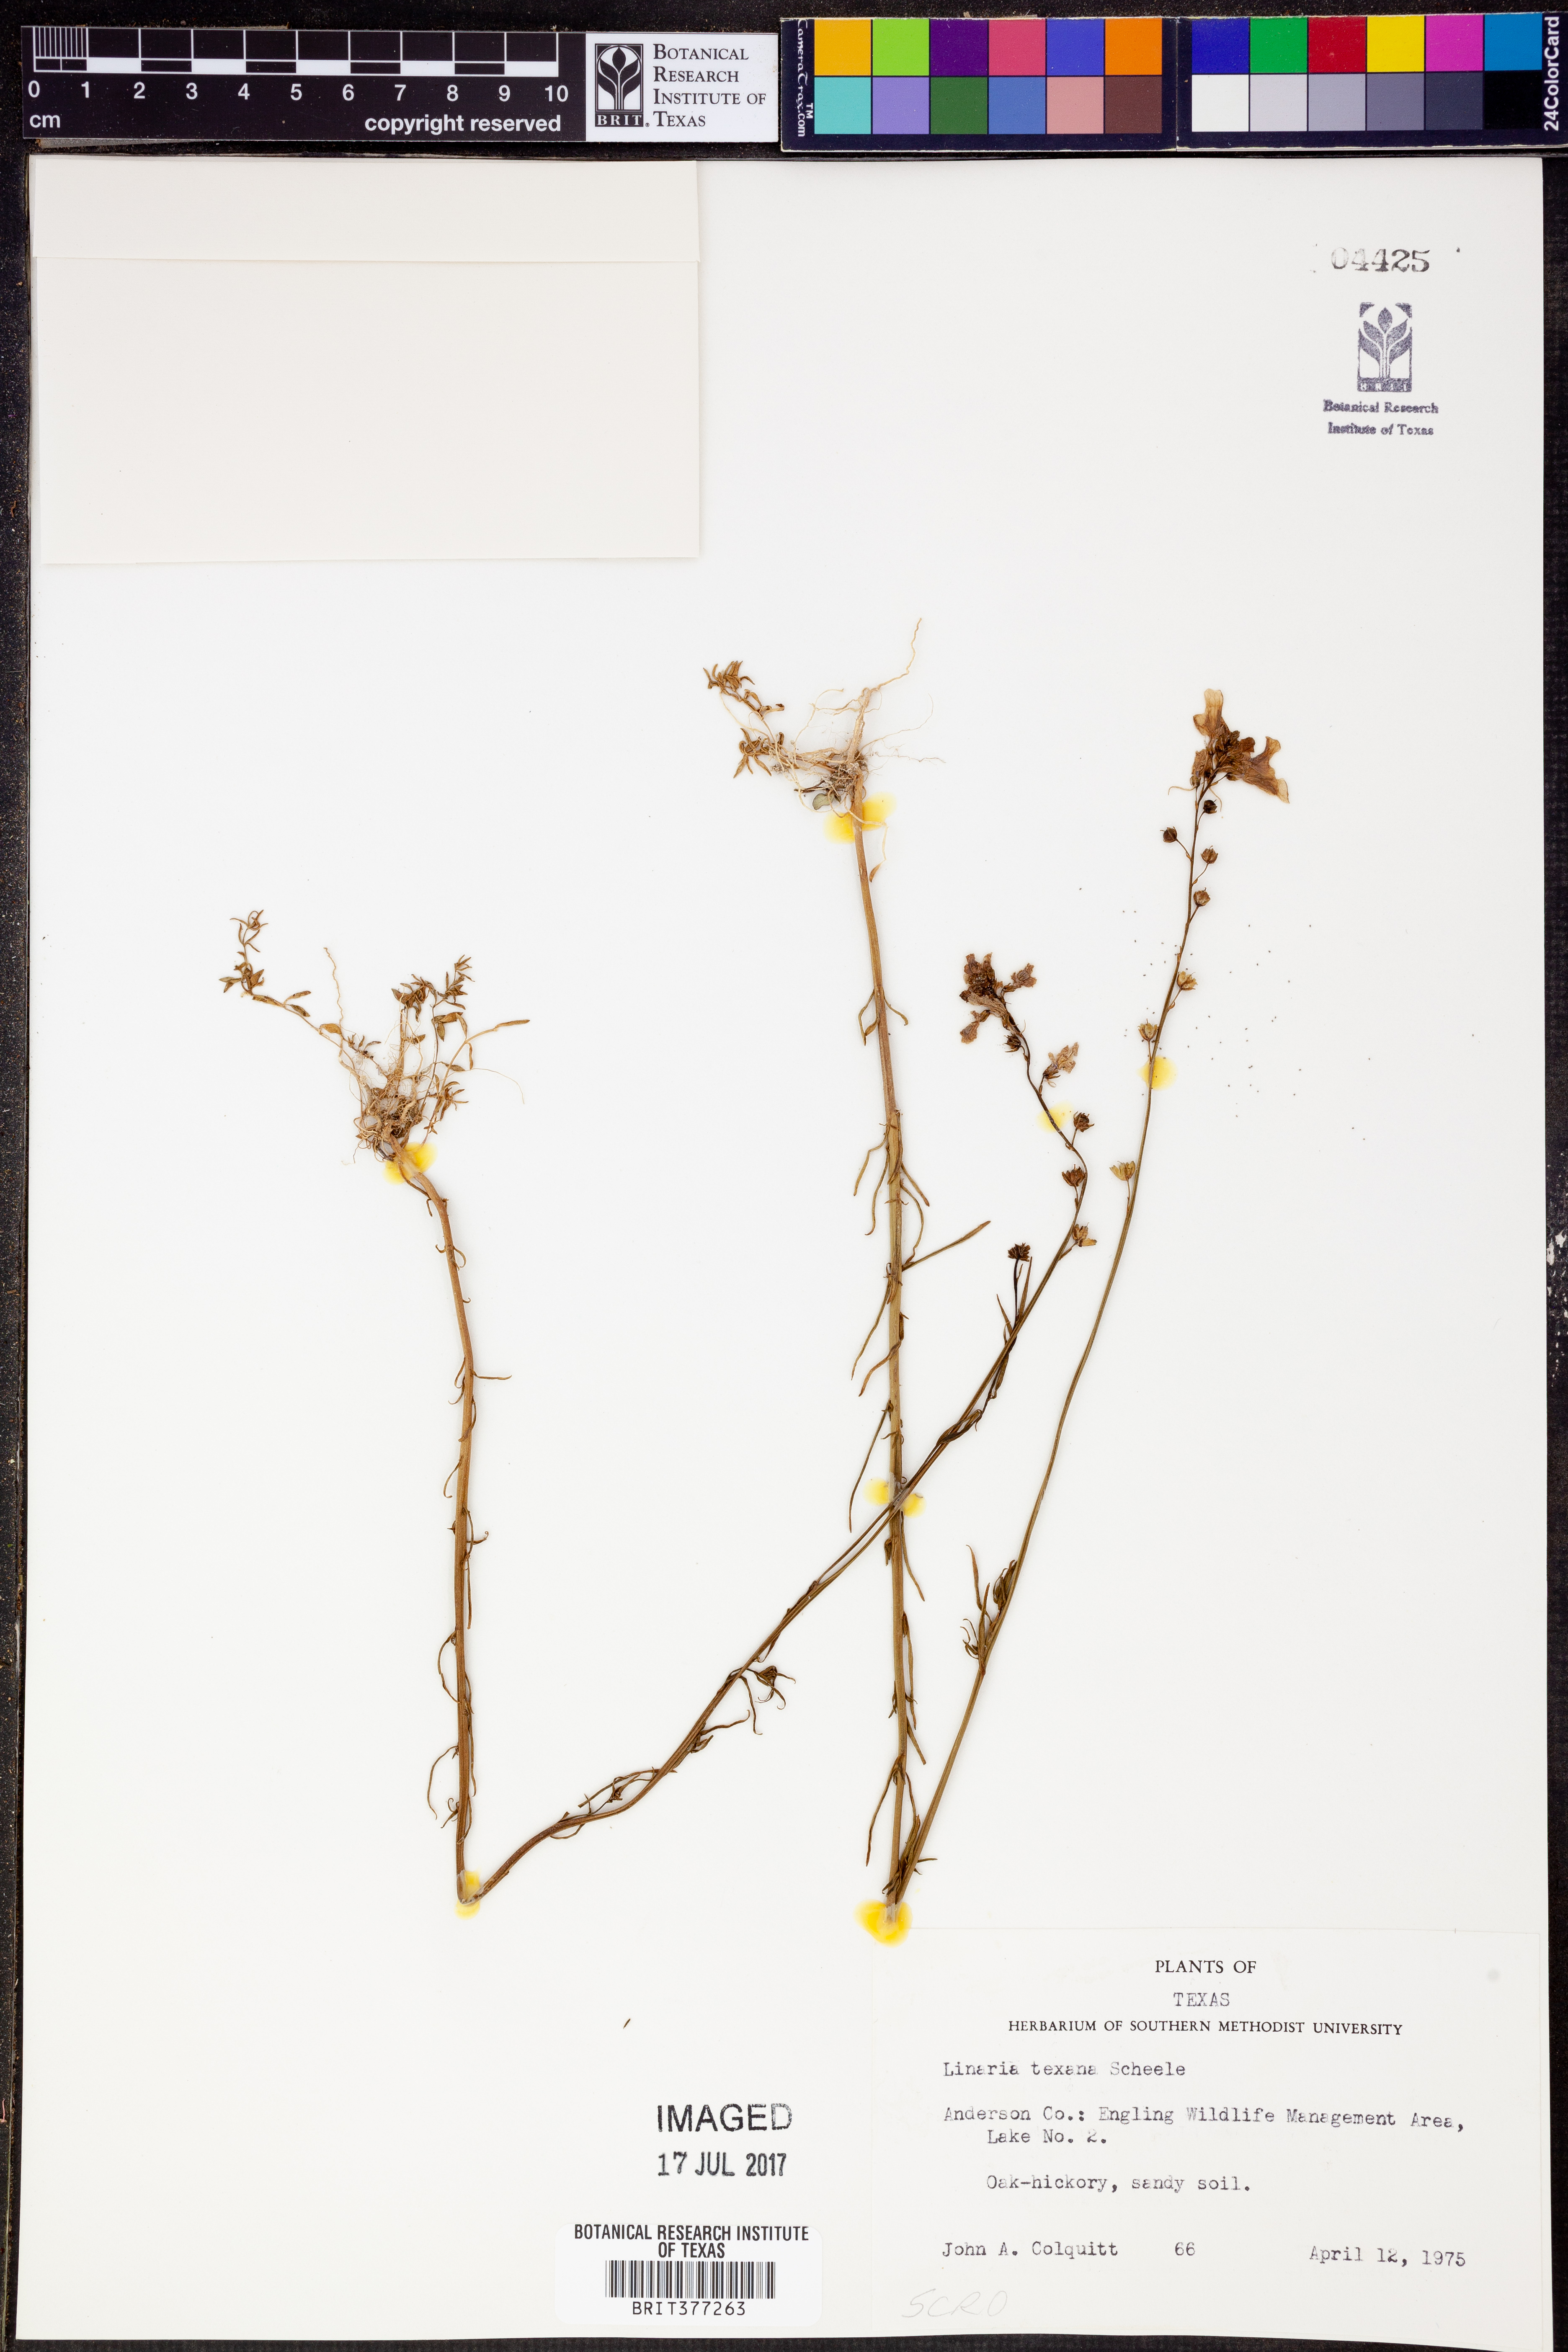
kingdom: Plantae
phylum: Tracheophyta
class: Magnoliopsida
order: Lamiales
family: Plantaginaceae
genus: Nuttallanthus
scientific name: Nuttallanthus texanus
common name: Texas toadflax
